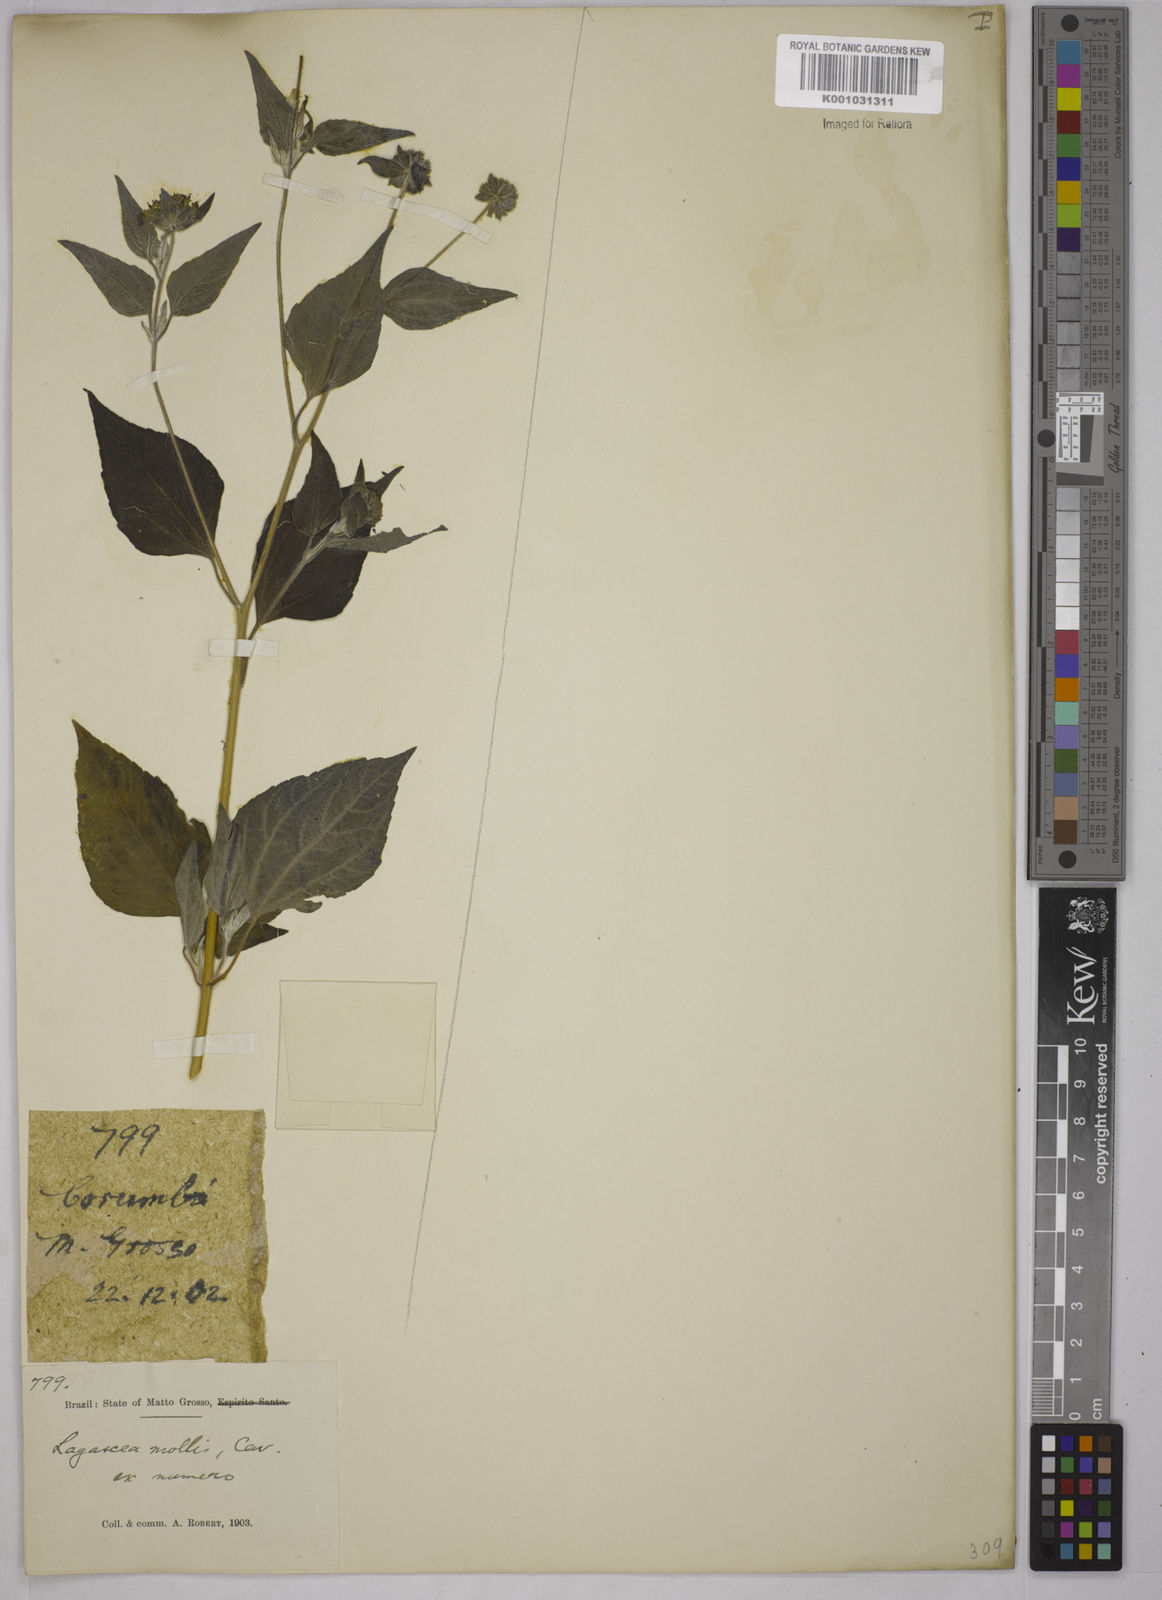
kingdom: Plantae
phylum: Tracheophyta
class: Magnoliopsida
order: Asterales
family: Asteraceae
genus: Lagascea
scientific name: Lagascea mollis
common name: Silkleaf
